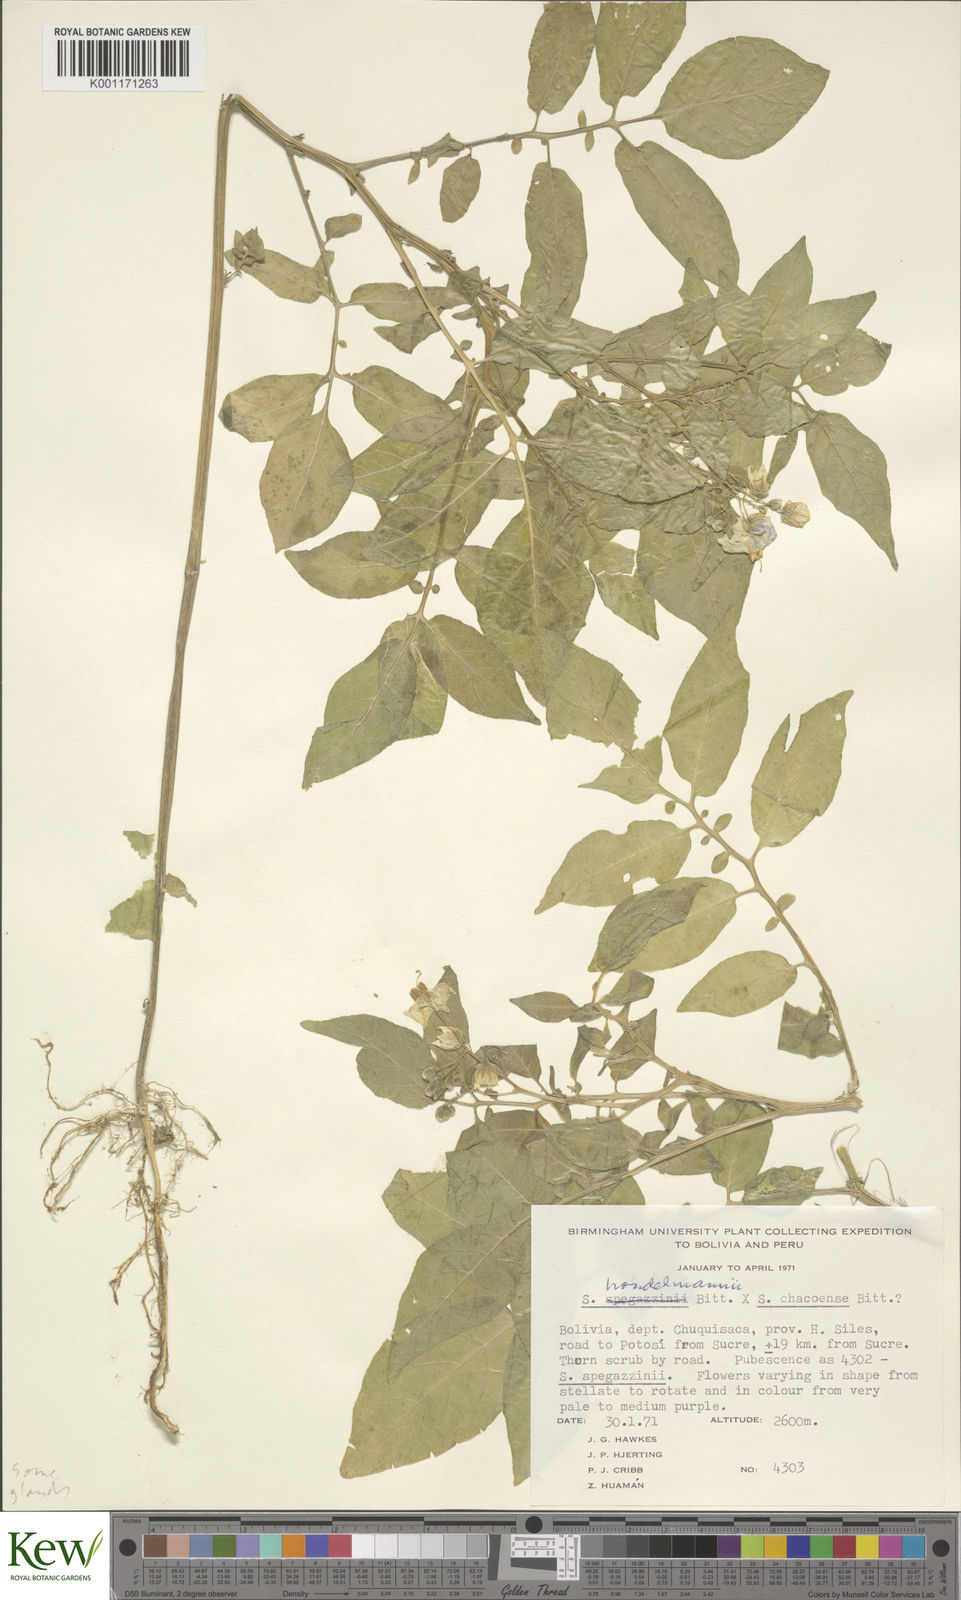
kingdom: Plantae
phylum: Tracheophyta
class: Magnoliopsida
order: Solanales
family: Solanaceae
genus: Solanum
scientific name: Solanum brevicaule
